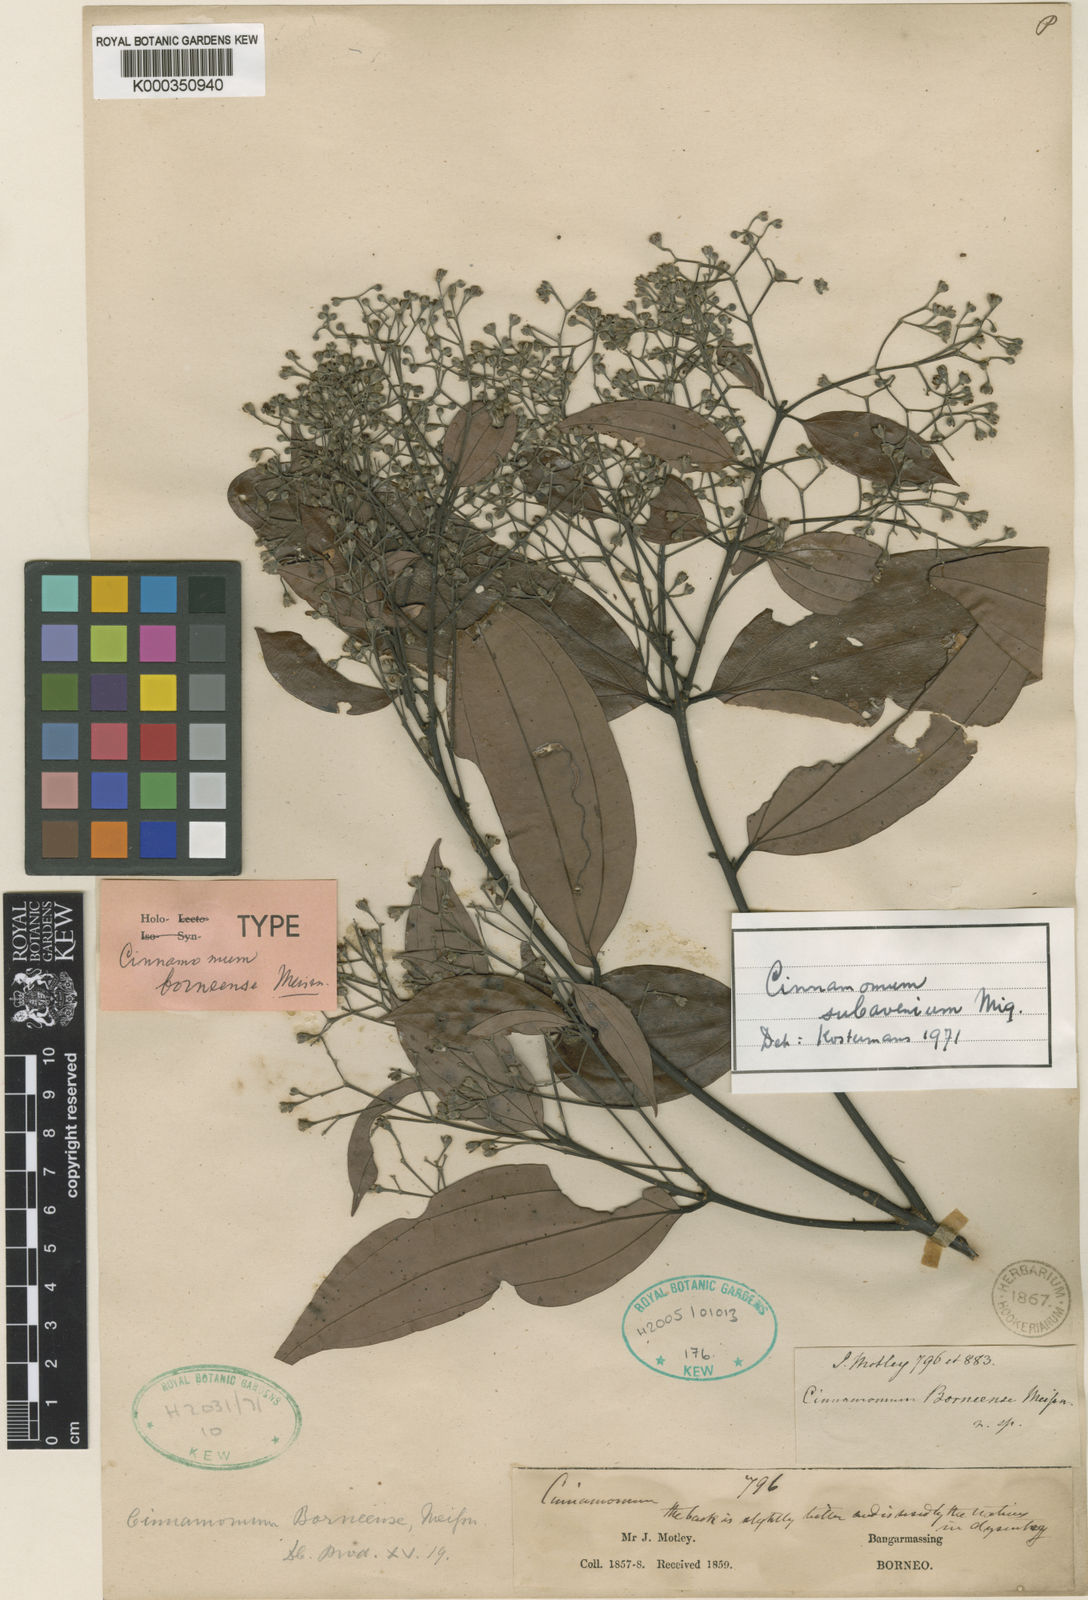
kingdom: Plantae
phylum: Tracheophyta
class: Magnoliopsida
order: Laurales
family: Lauraceae
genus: Cinnamomum
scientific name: Cinnamomum subavenium
